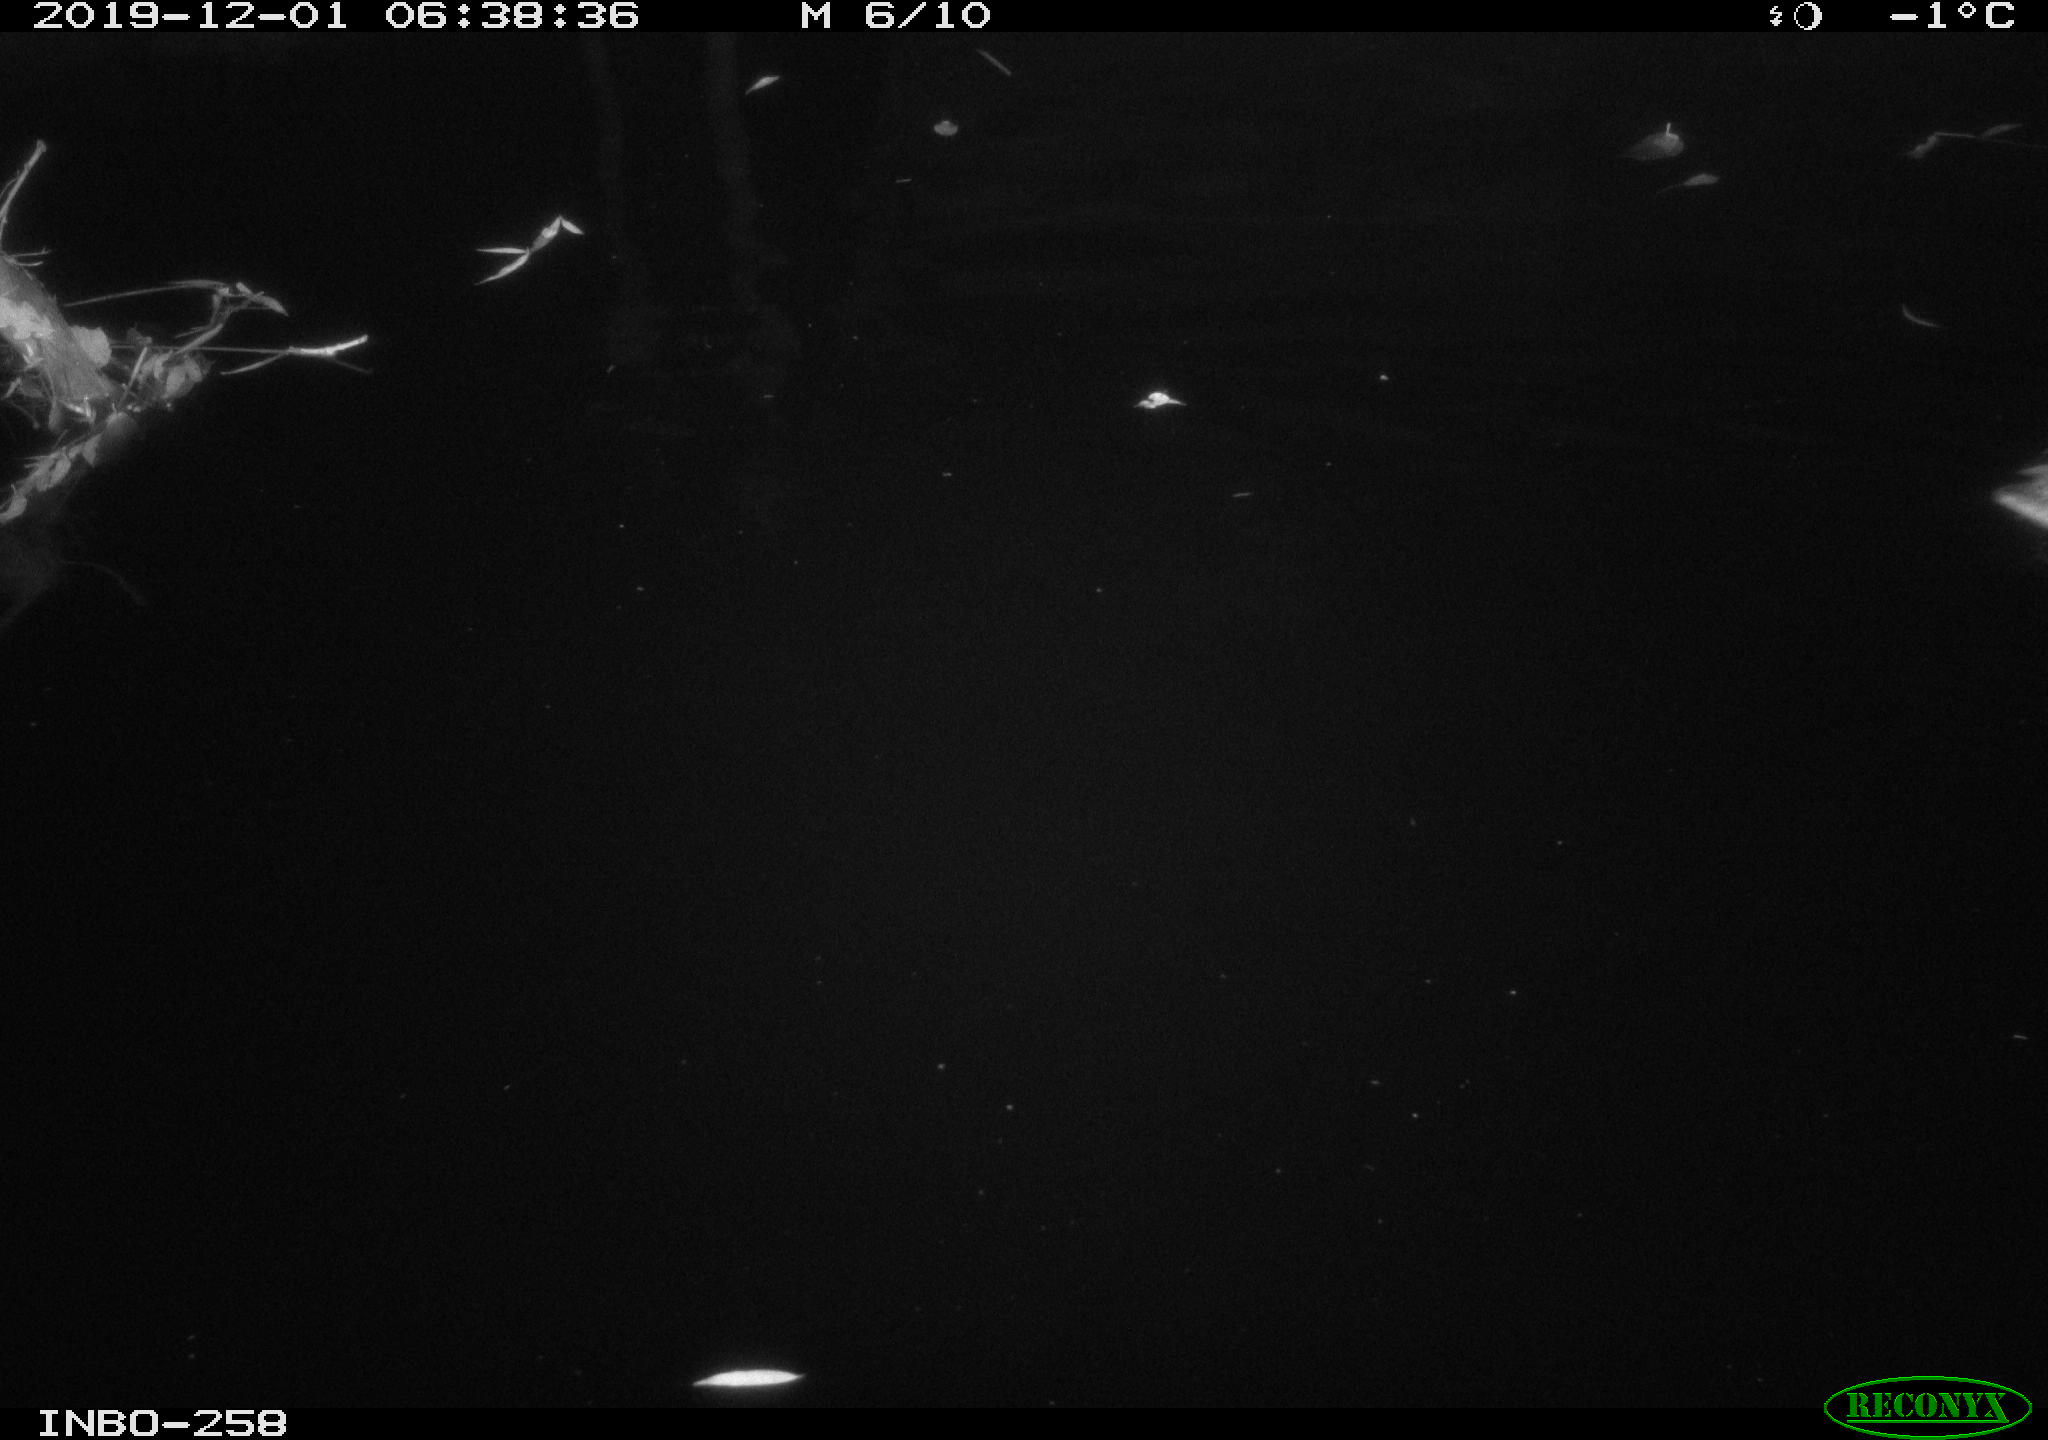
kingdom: Animalia
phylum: Chordata
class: Aves
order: Anseriformes
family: Anatidae
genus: Anas
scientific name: Anas platyrhynchos
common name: Mallard
